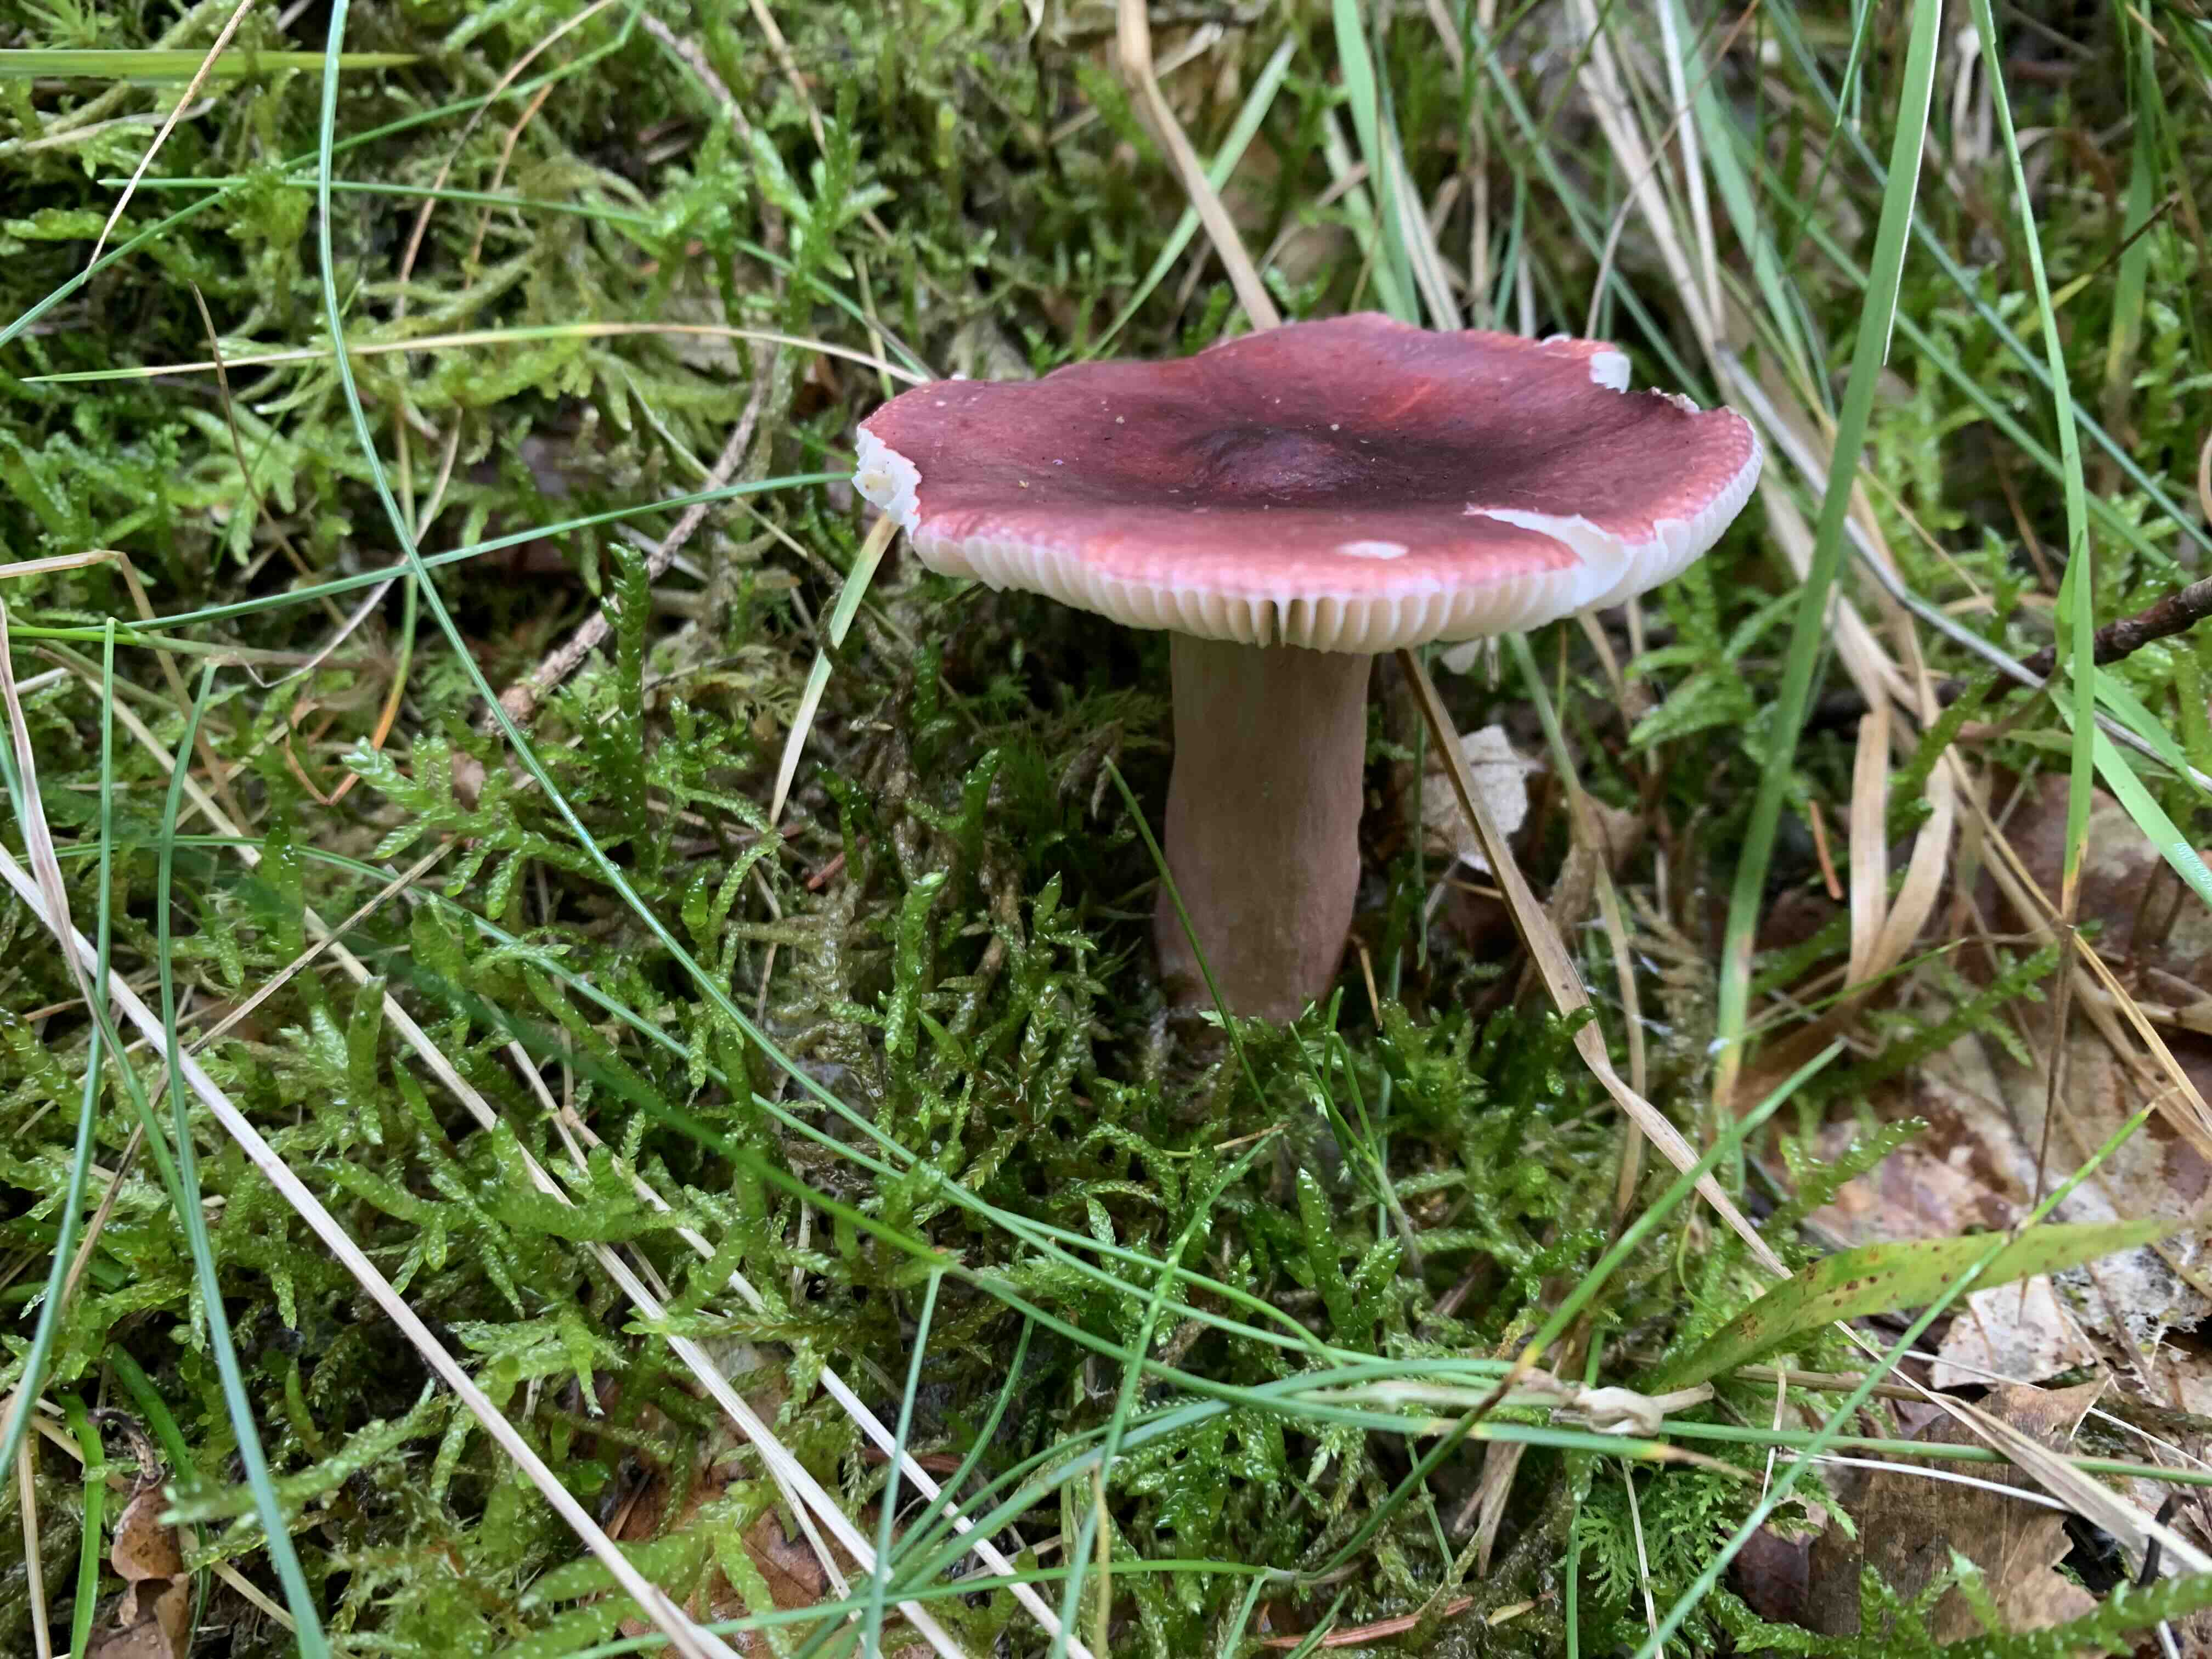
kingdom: Fungi
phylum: Basidiomycota
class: Agaricomycetes
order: Russulales
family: Russulaceae
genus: Russula
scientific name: Russula queletii
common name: Quélets skørhat
